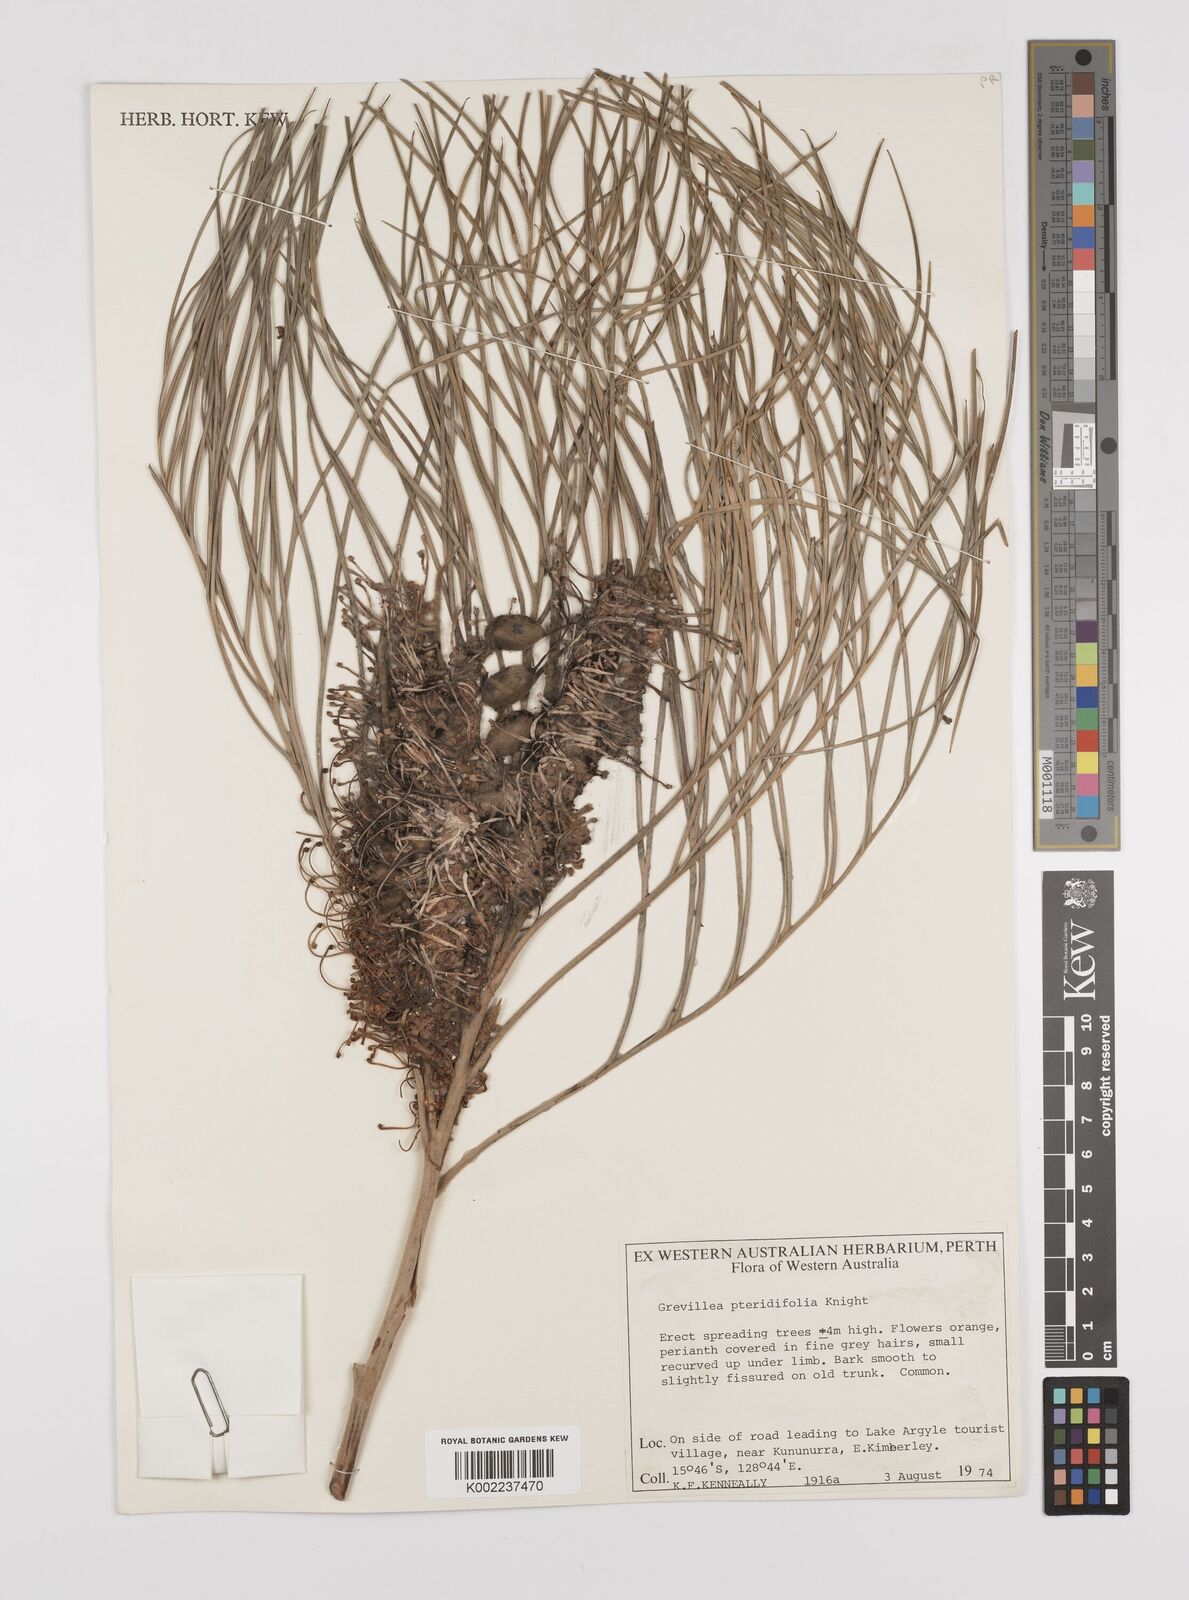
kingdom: Plantae
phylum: Tracheophyta
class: Magnoliopsida
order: Proteales
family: Proteaceae
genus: Grevillea
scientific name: Grevillea pteridifolia
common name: Golden grevillea
